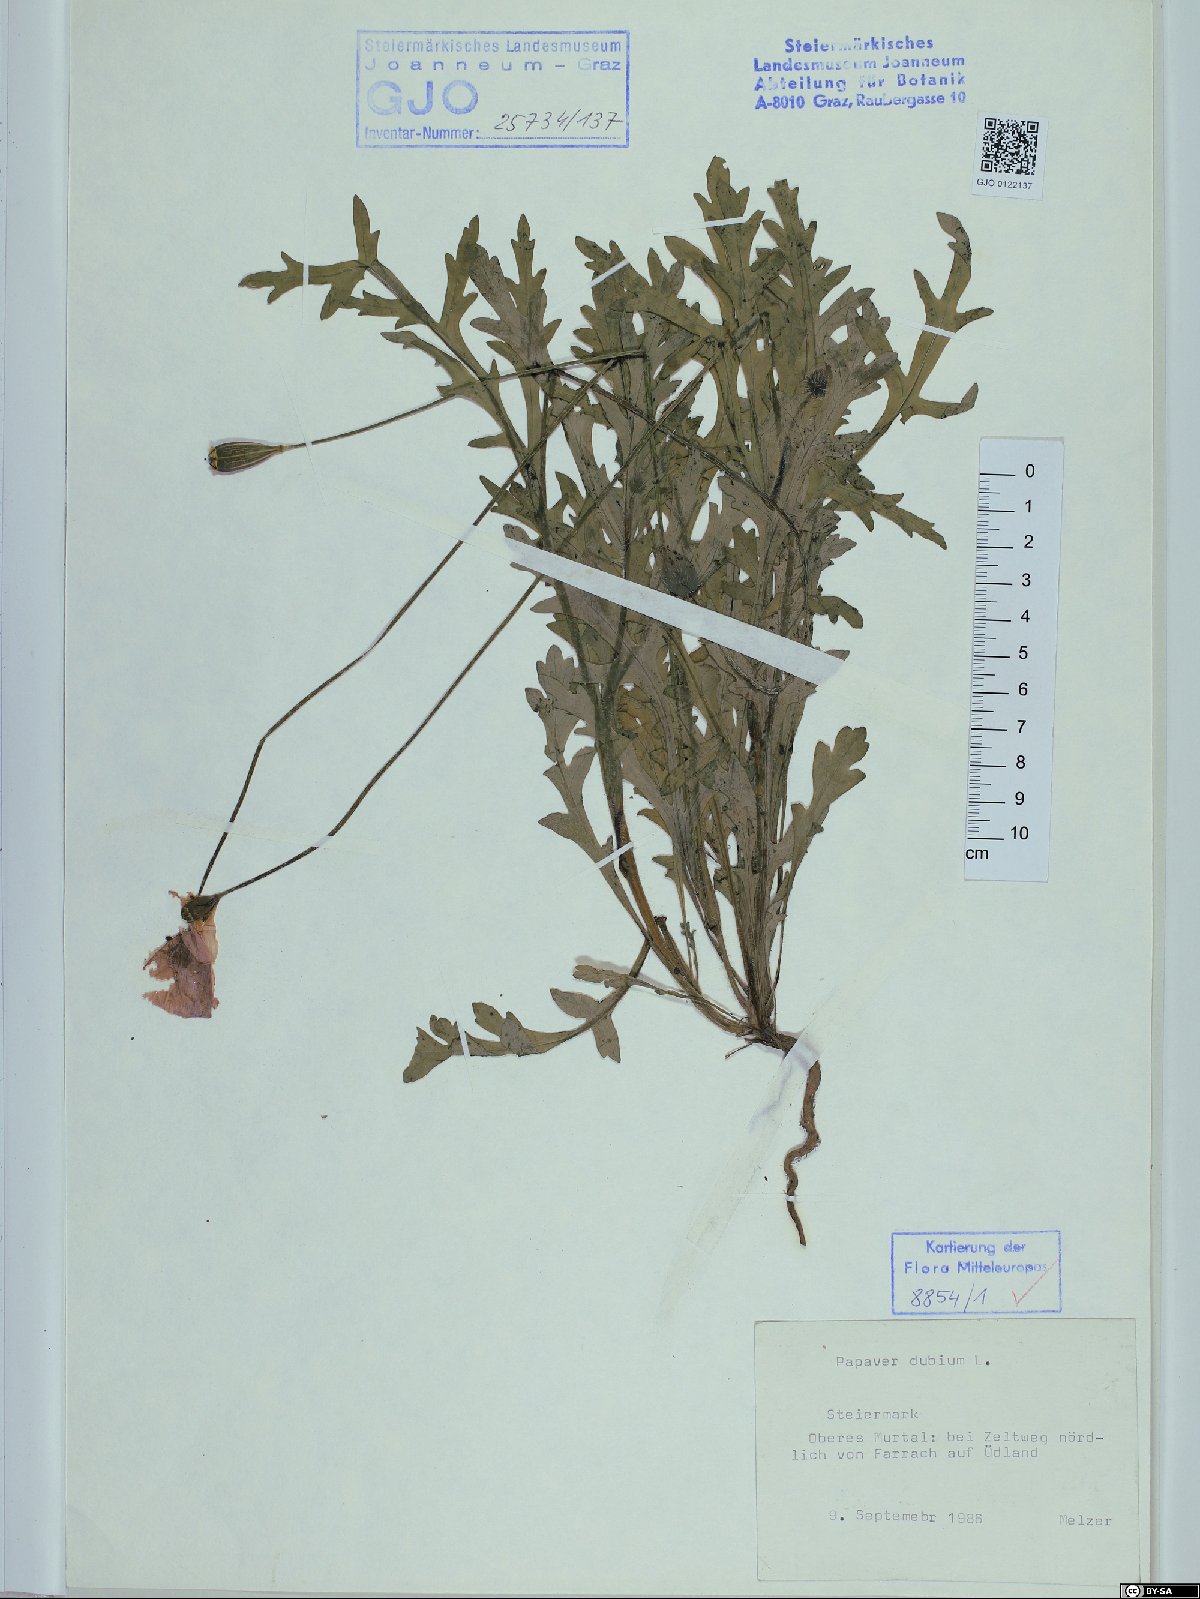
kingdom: Plantae
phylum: Tracheophyta
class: Magnoliopsida
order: Ranunculales
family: Papaveraceae
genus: Papaver
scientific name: Papaver dubium
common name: Long-headed poppy
